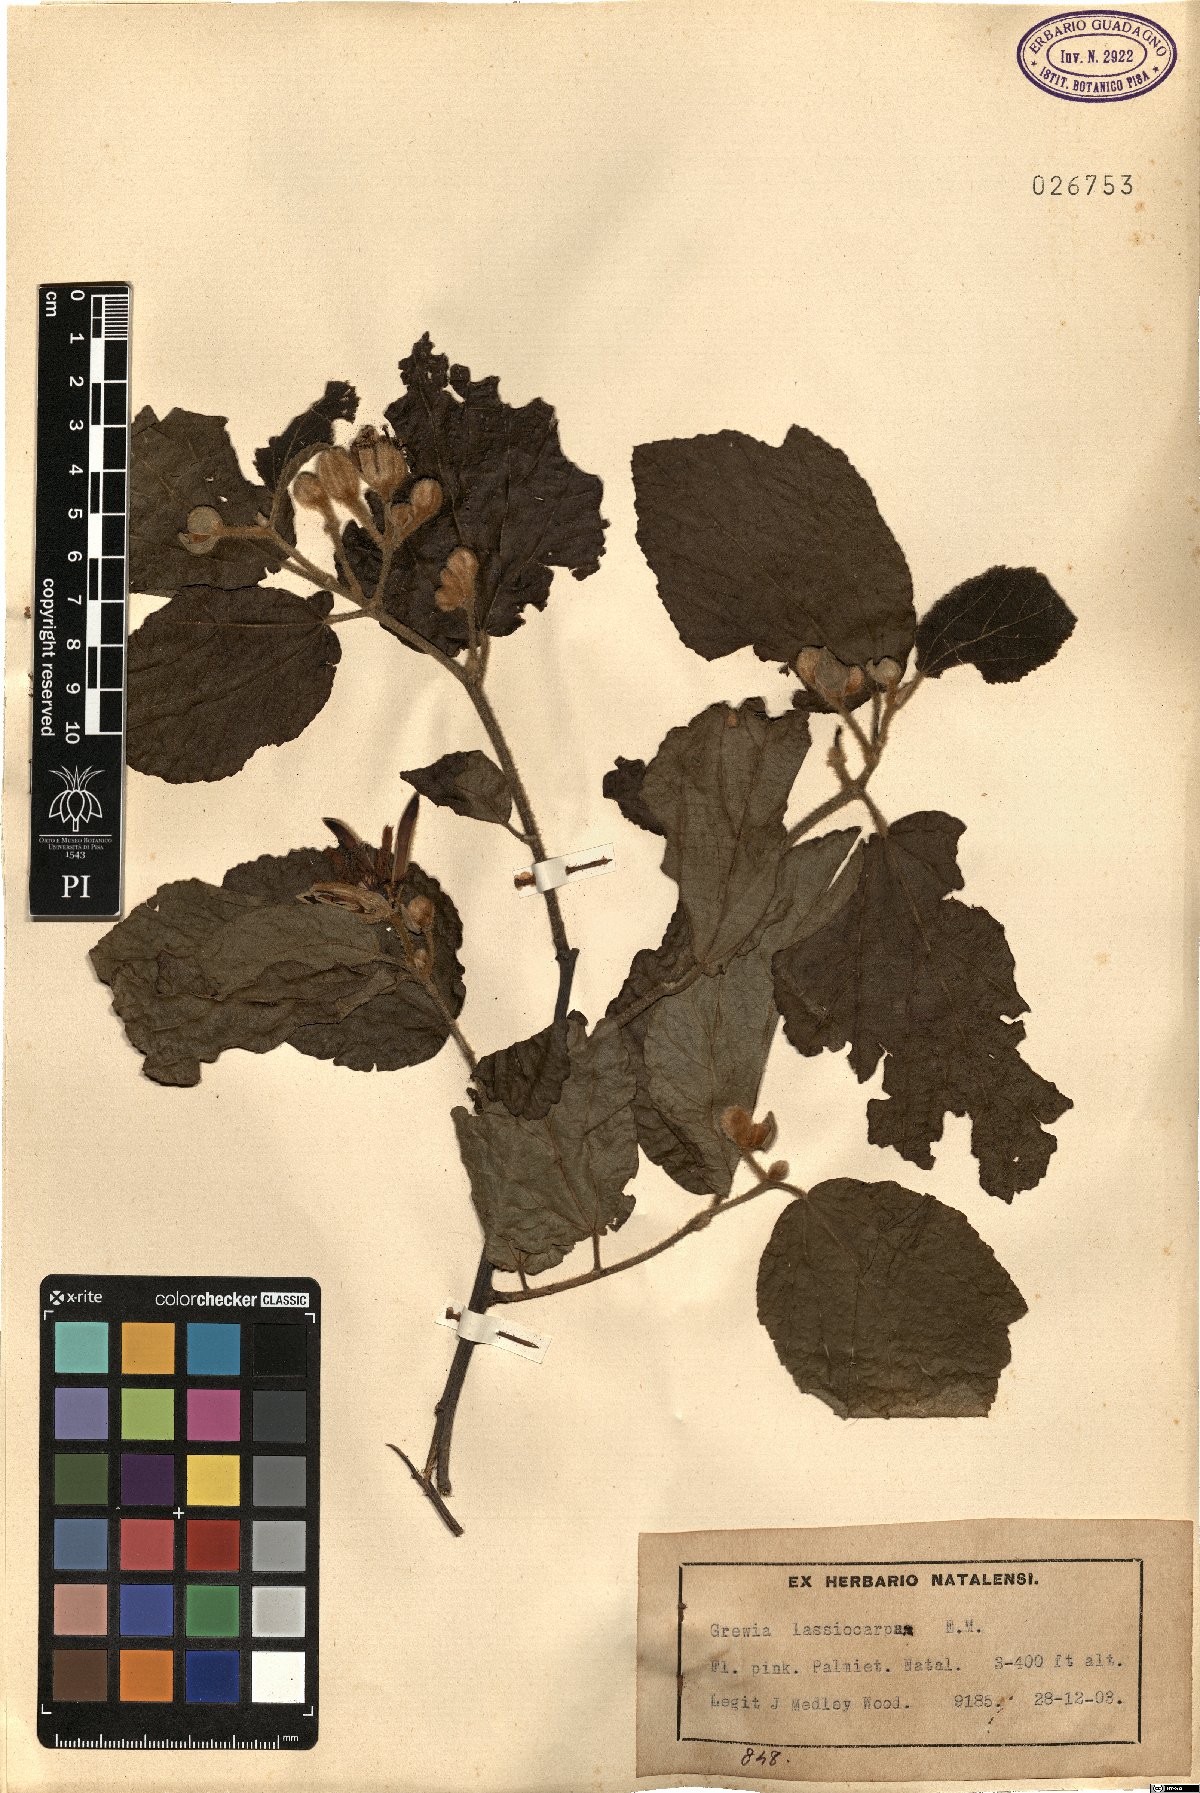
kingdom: Plantae
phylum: Tracheophyta
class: Magnoliopsida
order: Malvales
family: Malvaceae
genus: Grewia
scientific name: Grewia lasiocarpa
